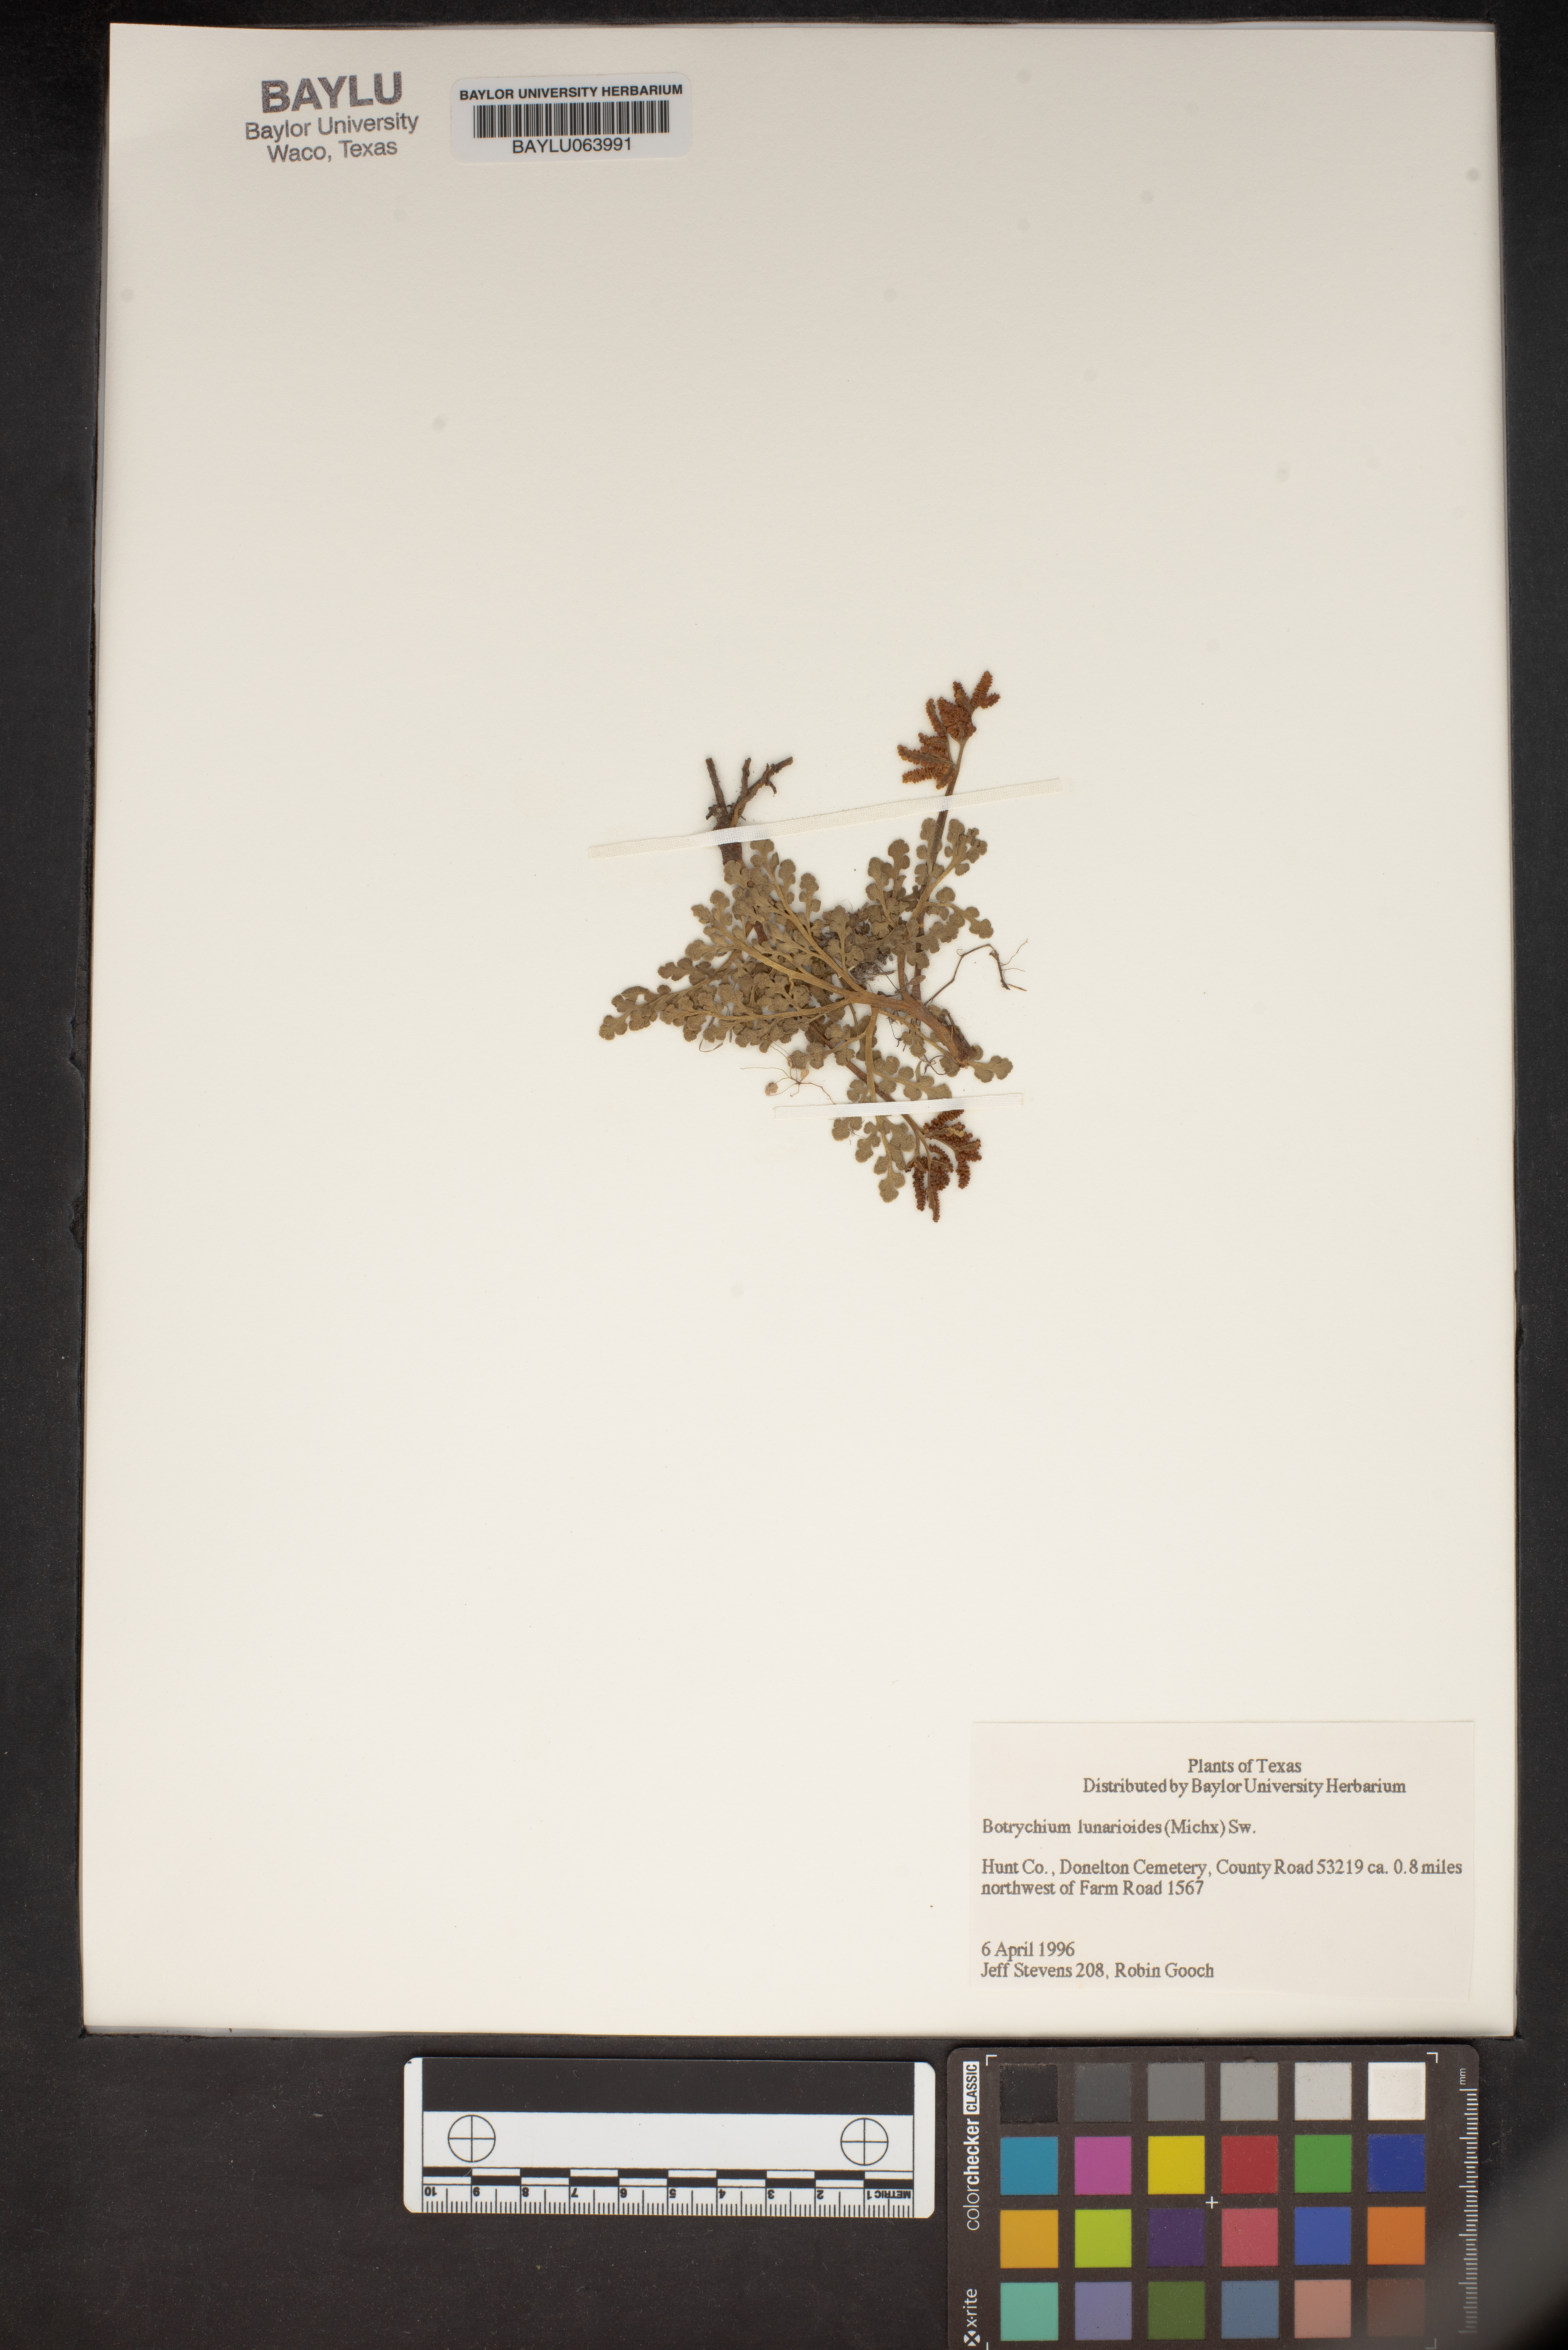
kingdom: Plantae
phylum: Tracheophyta
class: Polypodiopsida
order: Ophioglossales
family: Ophioglossaceae
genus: Sceptridium
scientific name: Sceptridium lunarioides
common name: Prostrate grapefern
